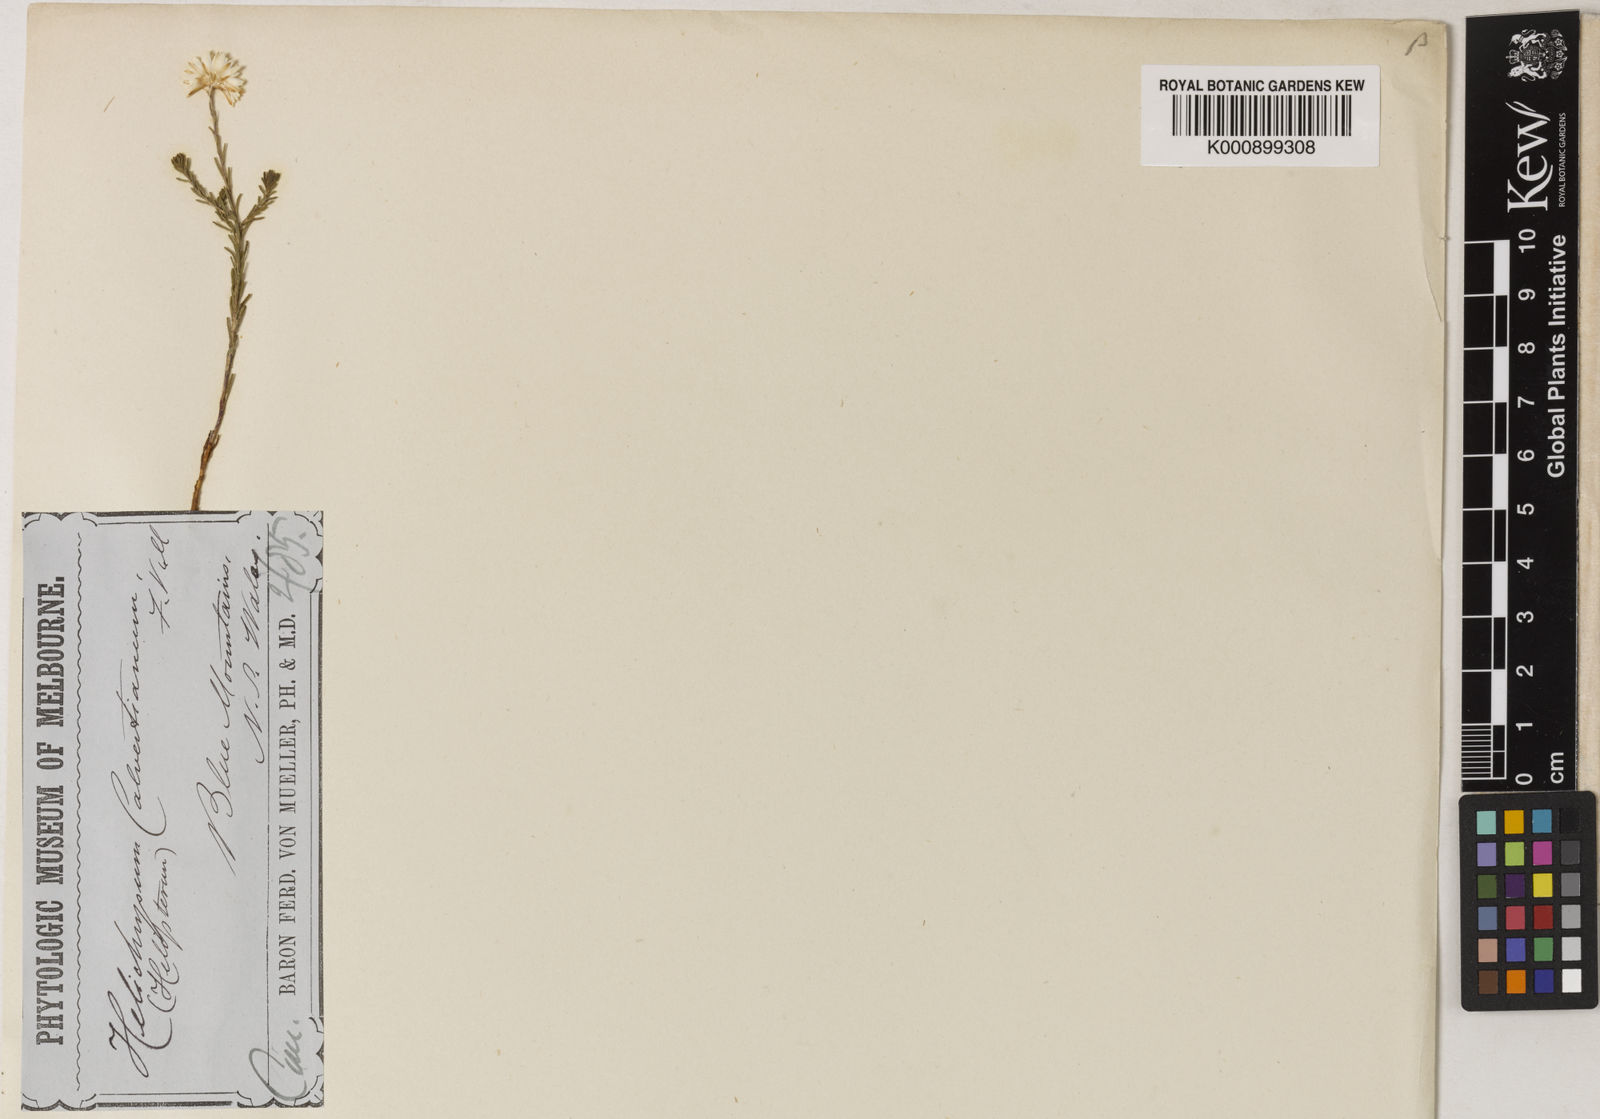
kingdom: Plantae
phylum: Tracheophyta
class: Magnoliopsida
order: Asterales
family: Asteraceae
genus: Waitzia
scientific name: Waitzia
